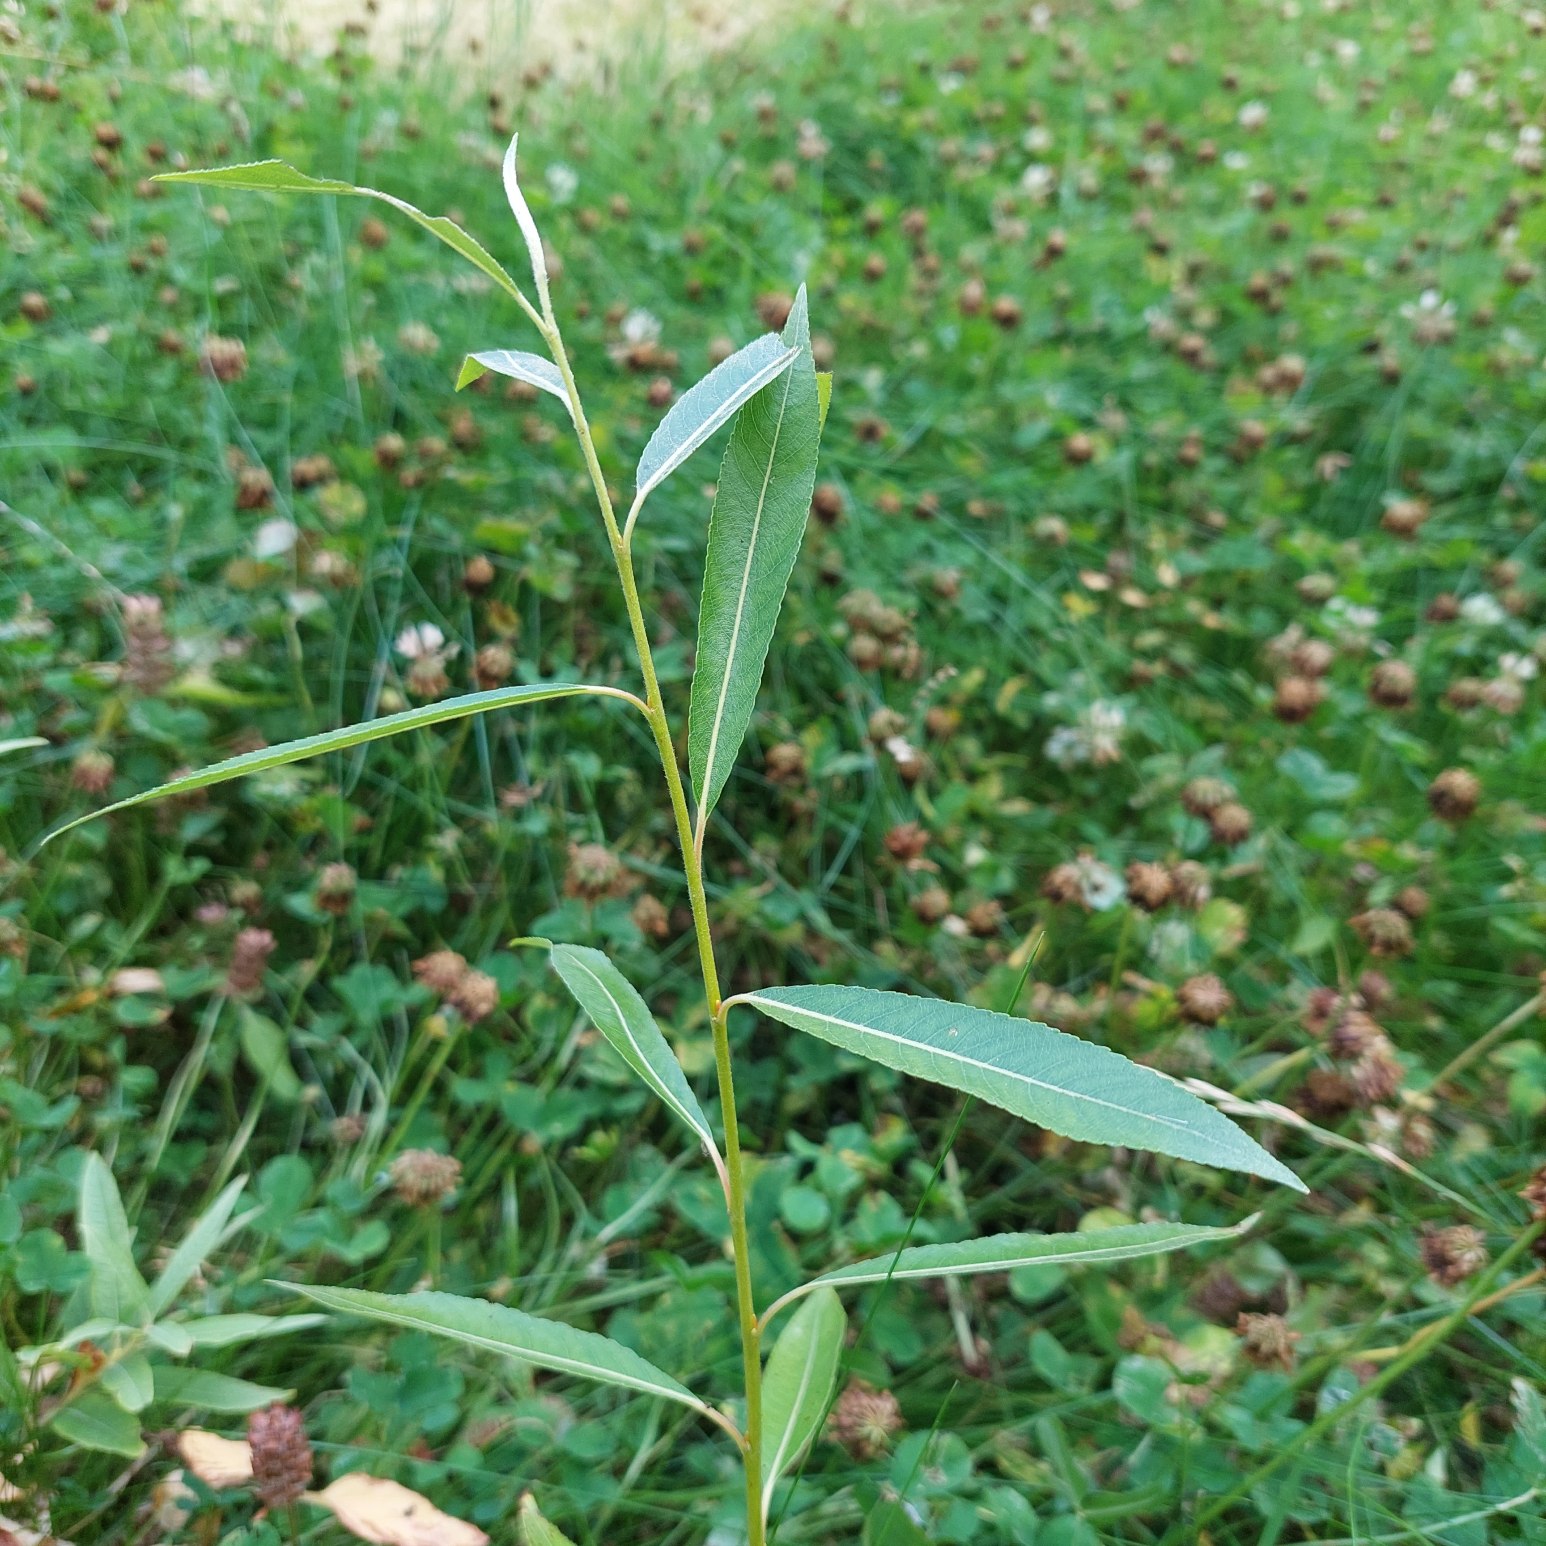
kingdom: Plantae
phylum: Tracheophyta
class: Magnoliopsida
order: Malpighiales
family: Salicaceae
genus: Salix
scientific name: Salix
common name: Pileslægten
